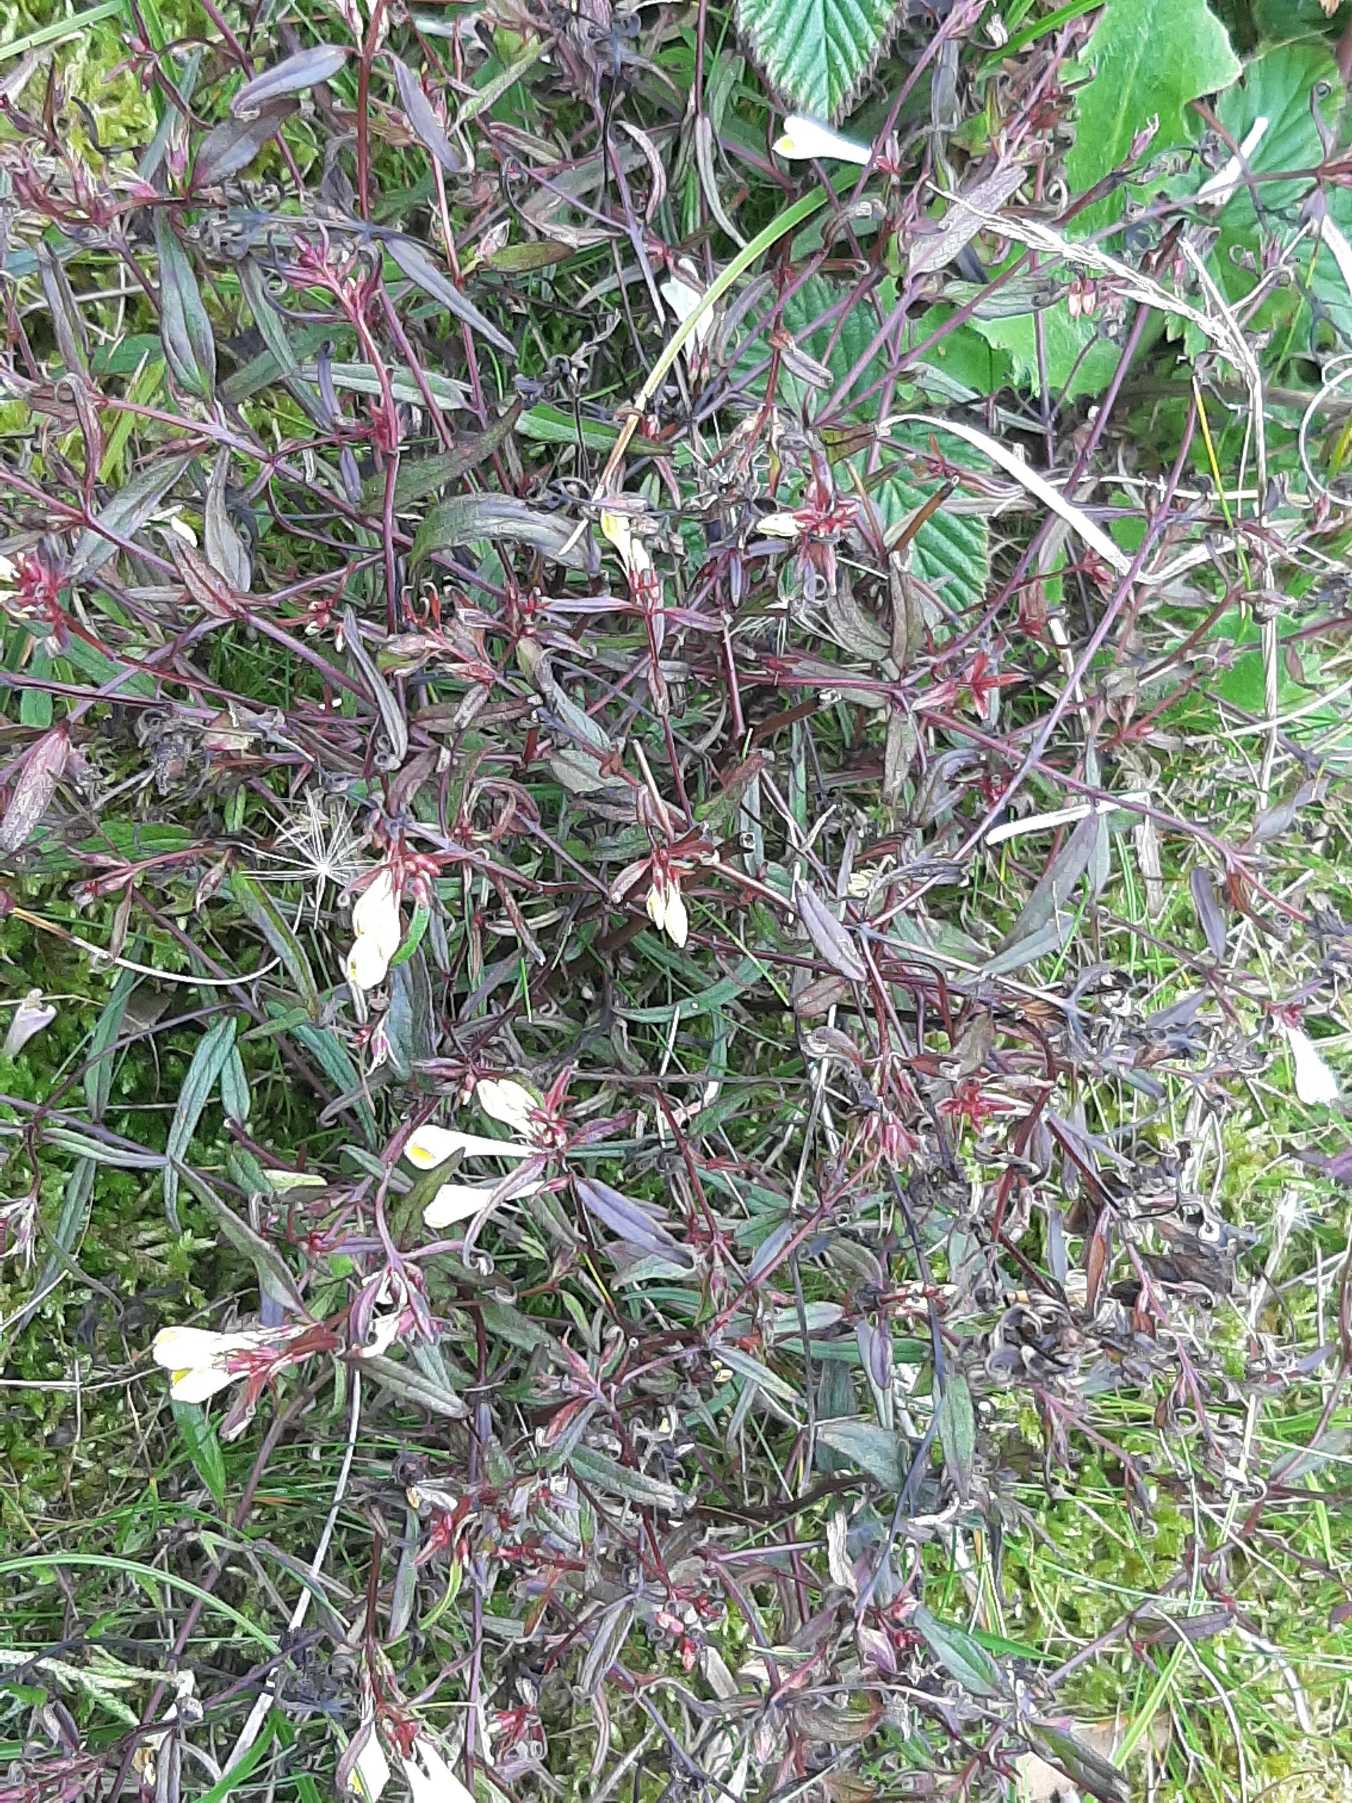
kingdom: Plantae
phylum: Tracheophyta
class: Magnoliopsida
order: Lamiales
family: Orobanchaceae
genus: Melampyrum
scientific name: Melampyrum pratense
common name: Almindelig kohvede
